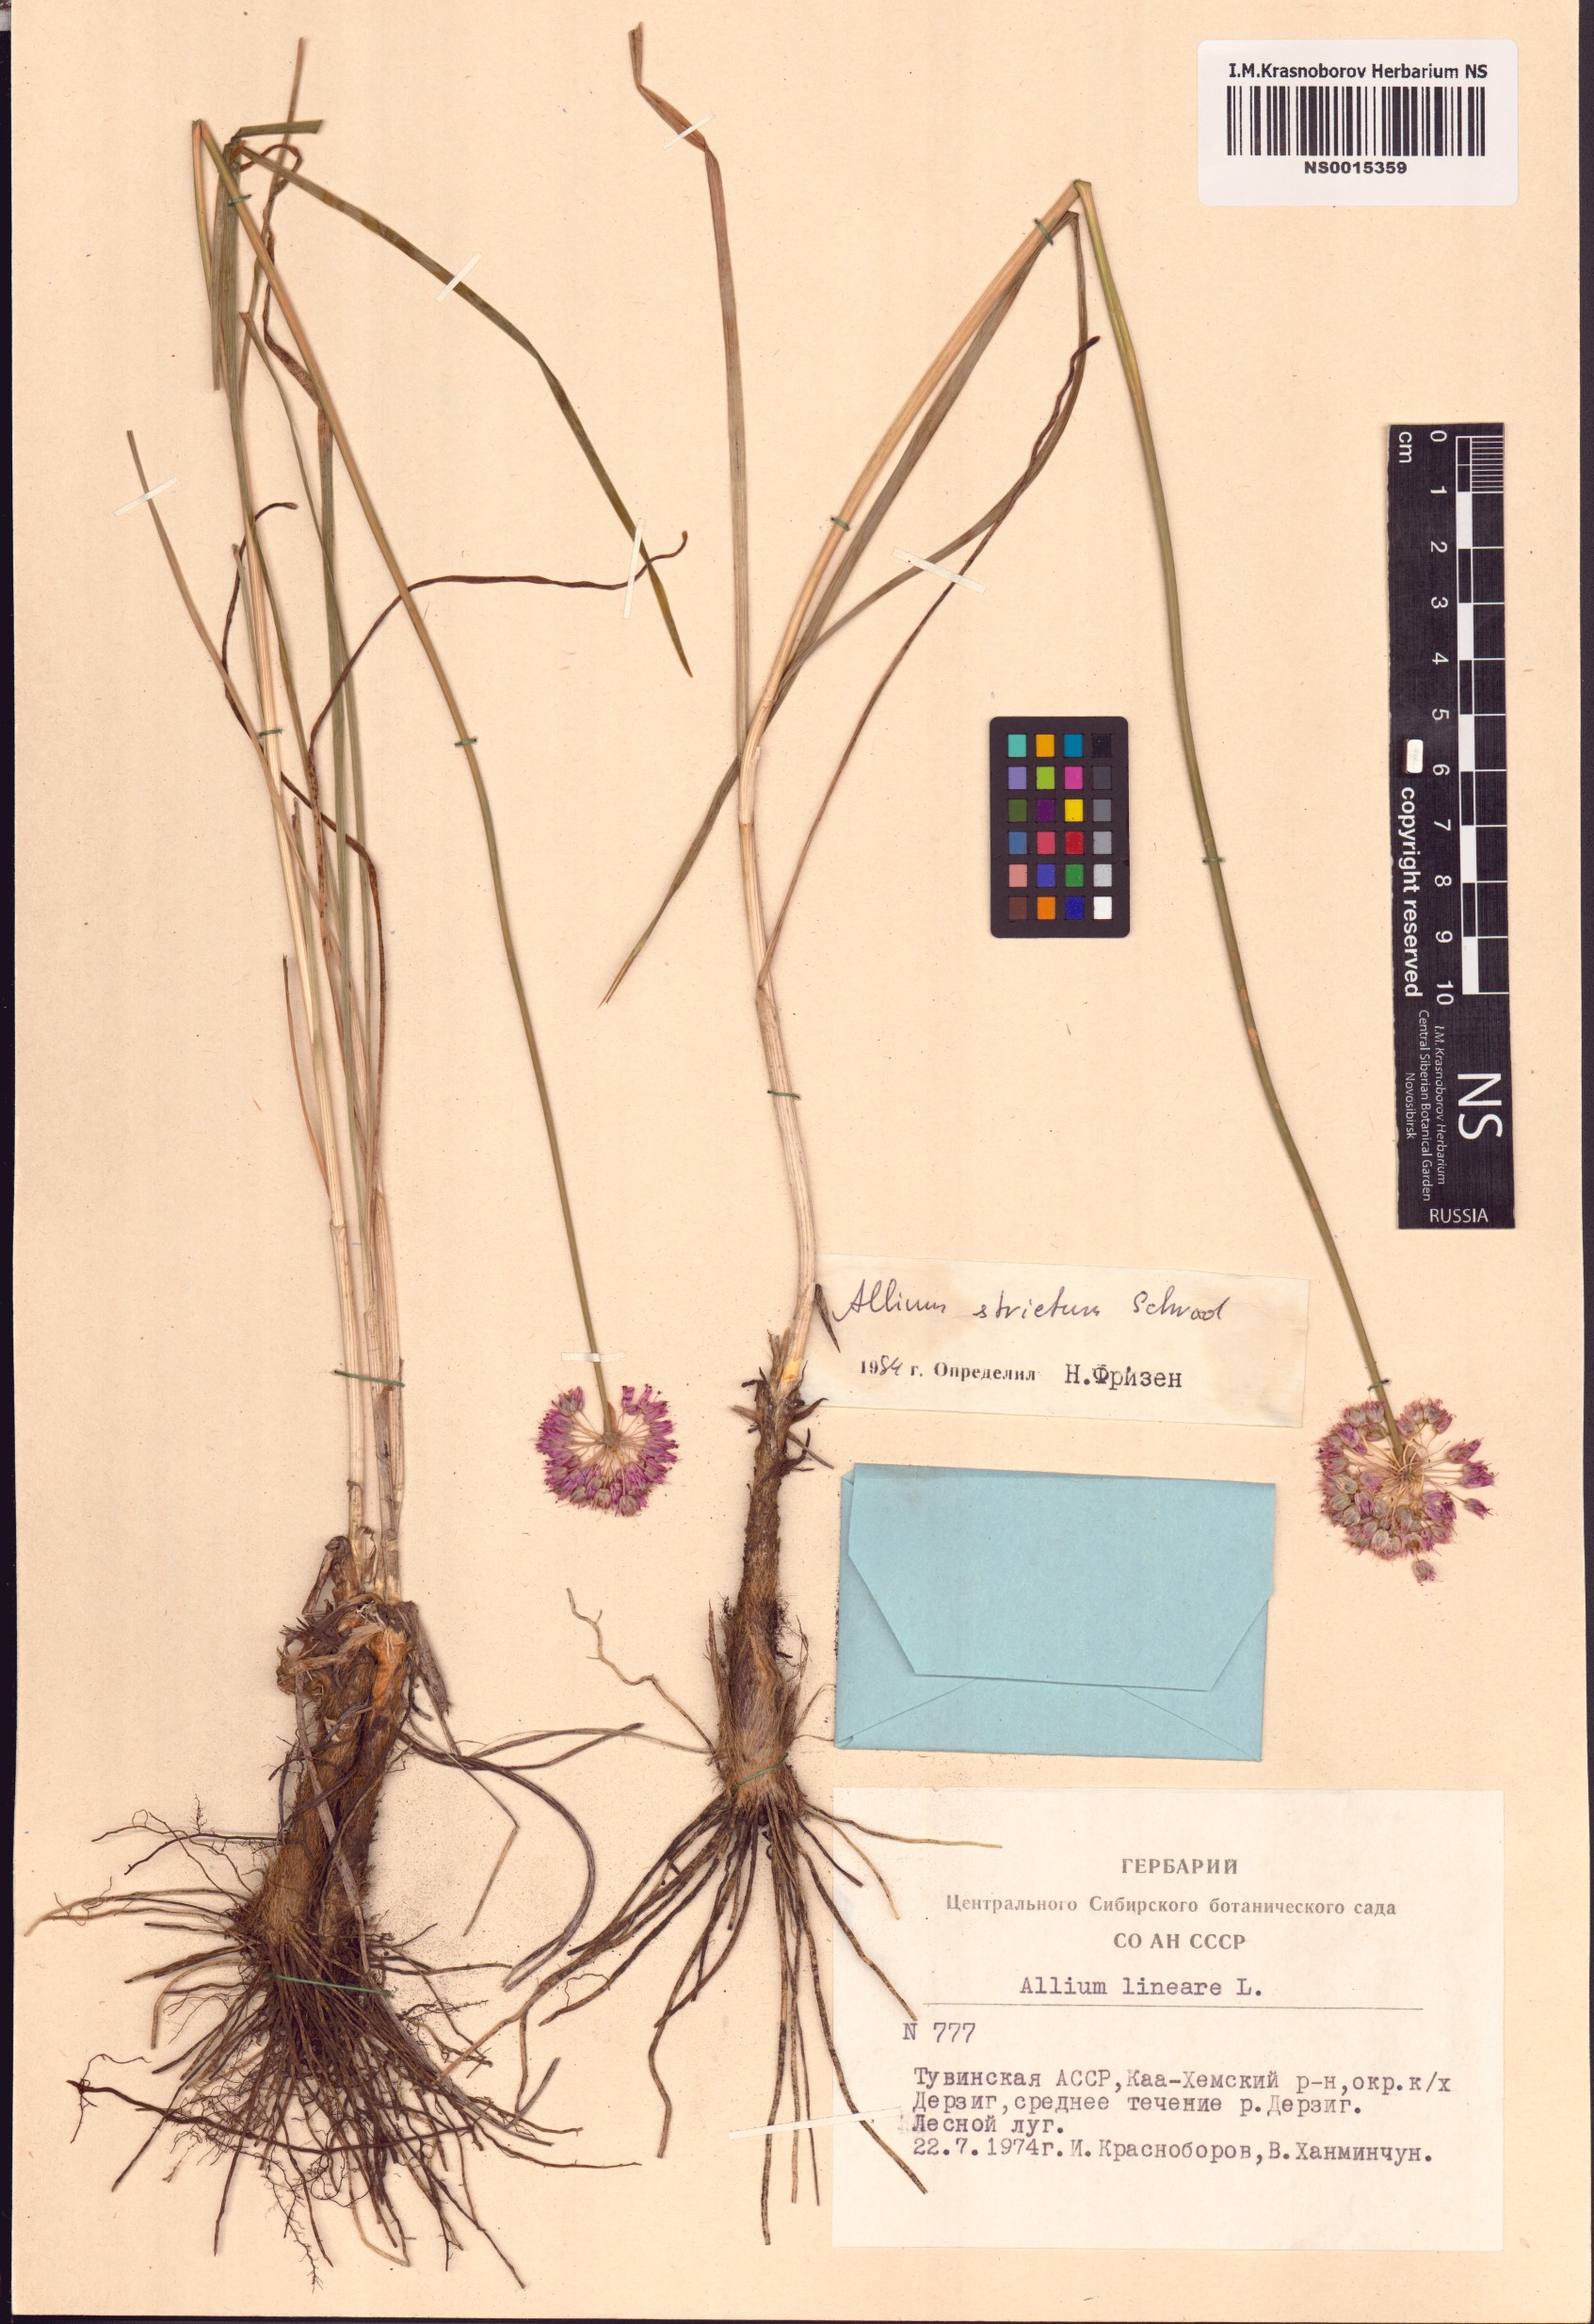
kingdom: Plantae
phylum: Tracheophyta
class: Liliopsida
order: Asparagales
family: Amaryllidaceae
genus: Allium
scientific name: Allium strictum
